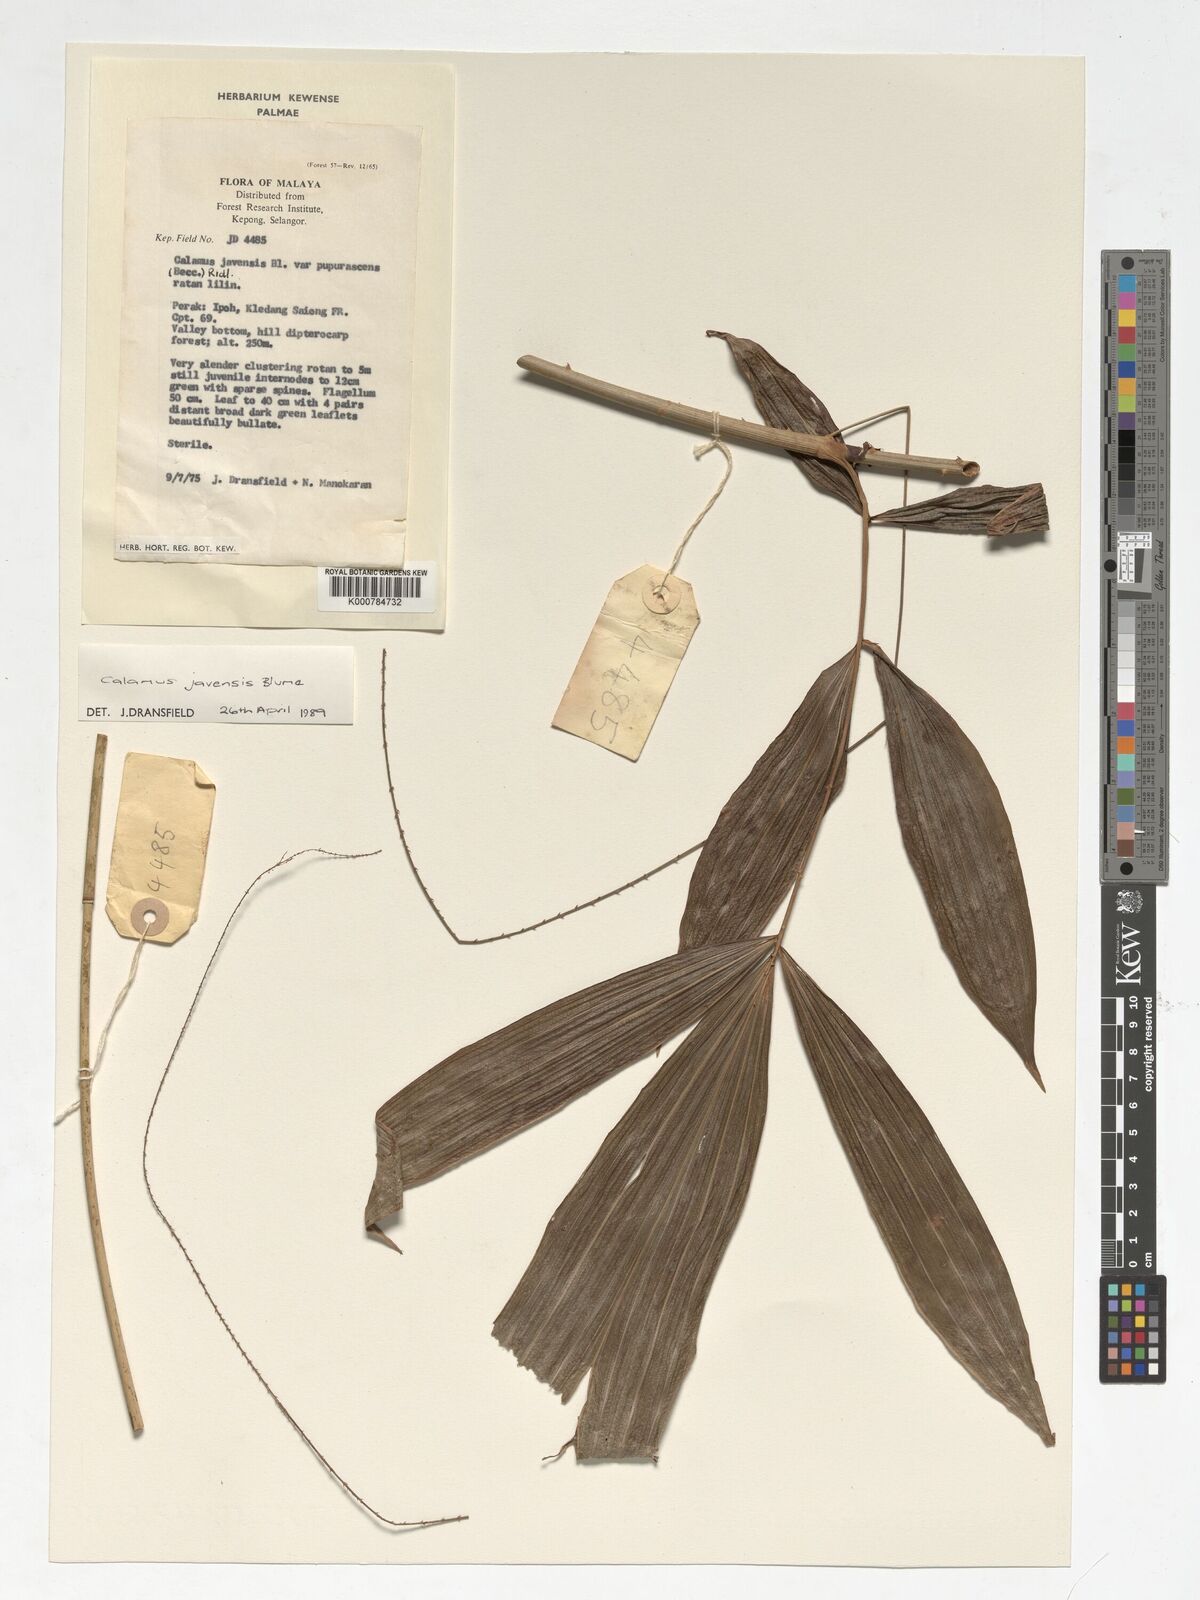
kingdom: Plantae
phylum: Tracheophyta
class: Liliopsida
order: Arecales
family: Arecaceae
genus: Calamus
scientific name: Calamus javensis
